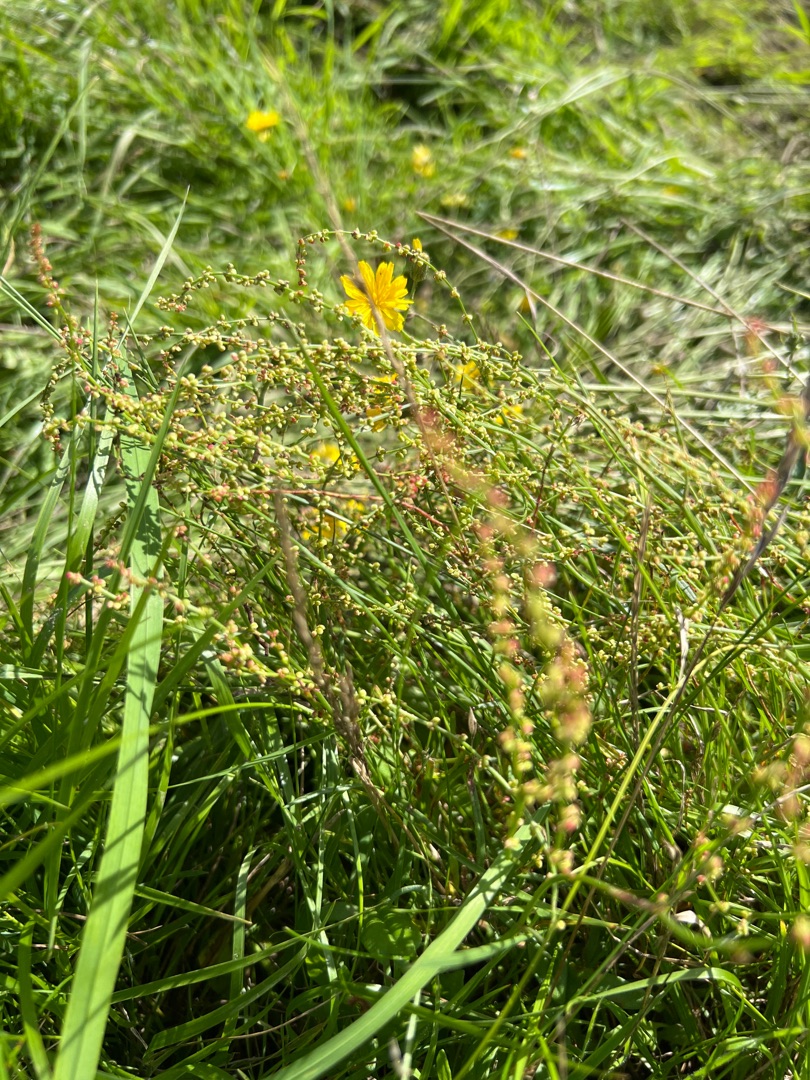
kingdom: Plantae
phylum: Tracheophyta
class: Magnoliopsida
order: Caryophyllales
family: Polygonaceae
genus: Rumex
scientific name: Rumex acetosella
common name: Rødknæ
